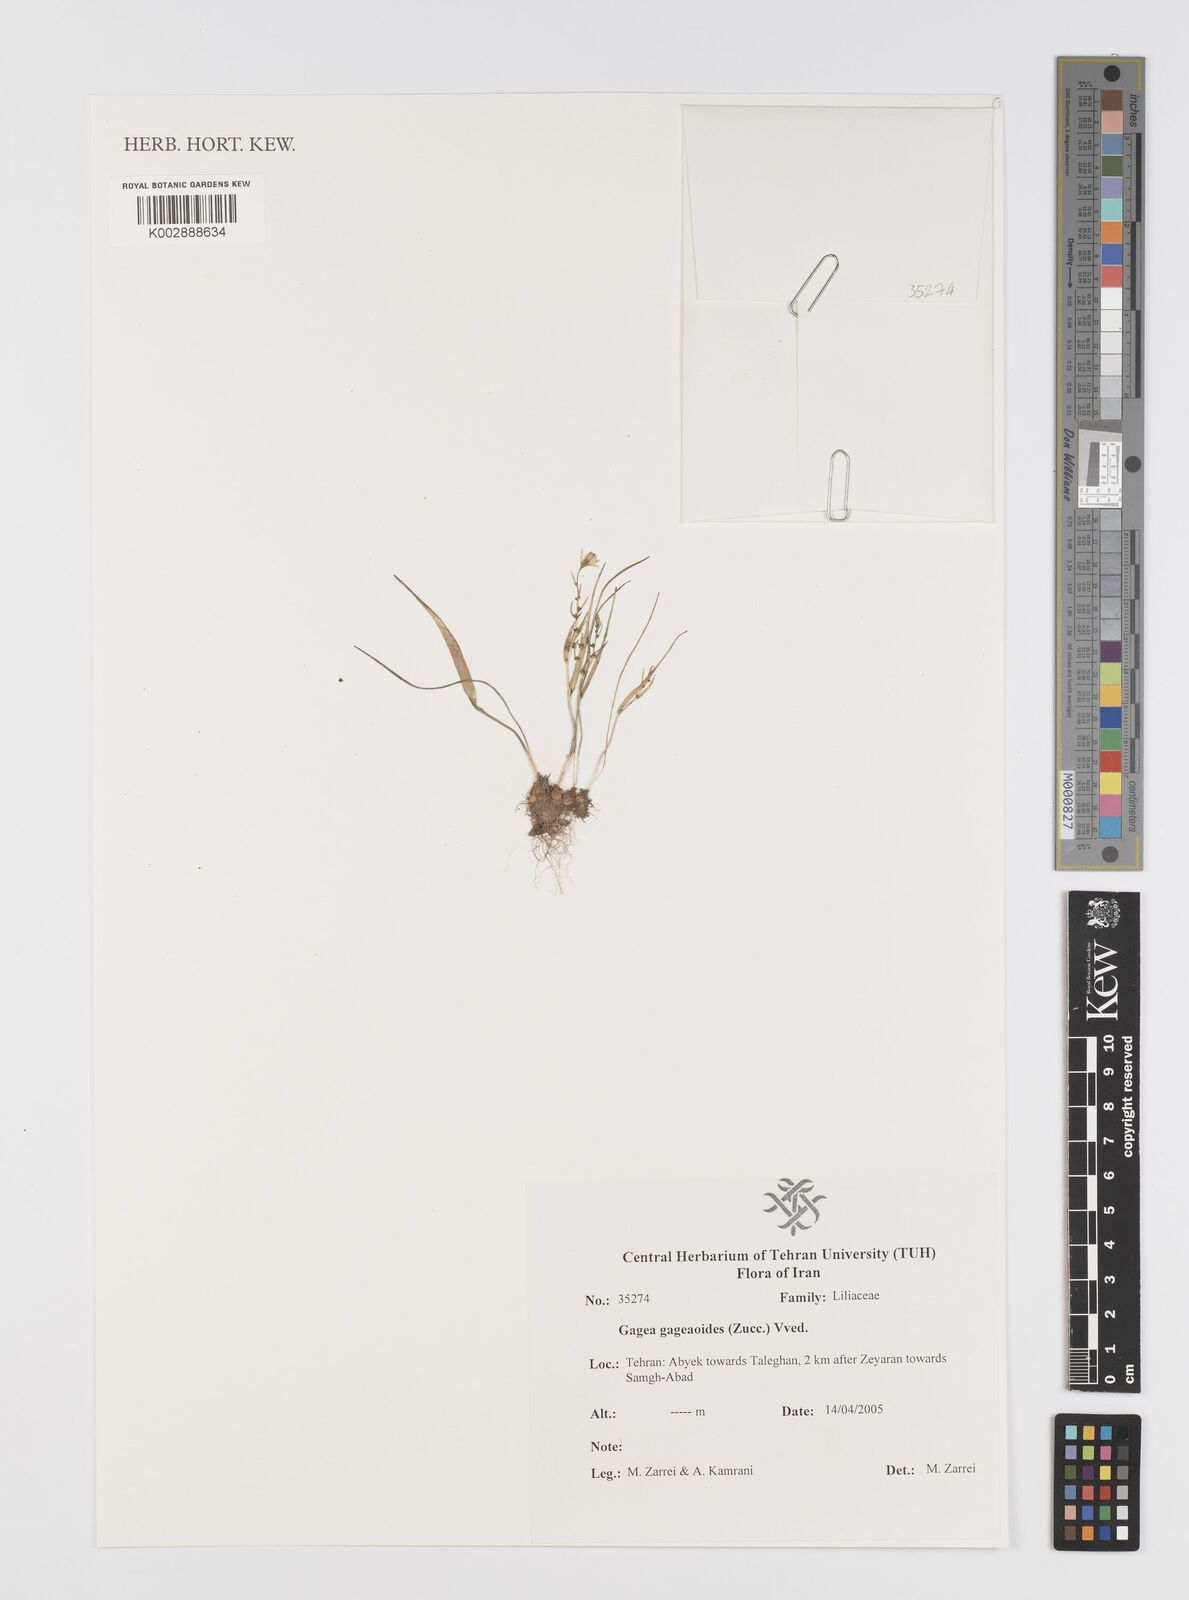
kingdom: Plantae
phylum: Tracheophyta
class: Liliopsida
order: Liliales
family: Liliaceae
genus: Gagea
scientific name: Gagea gageoides
